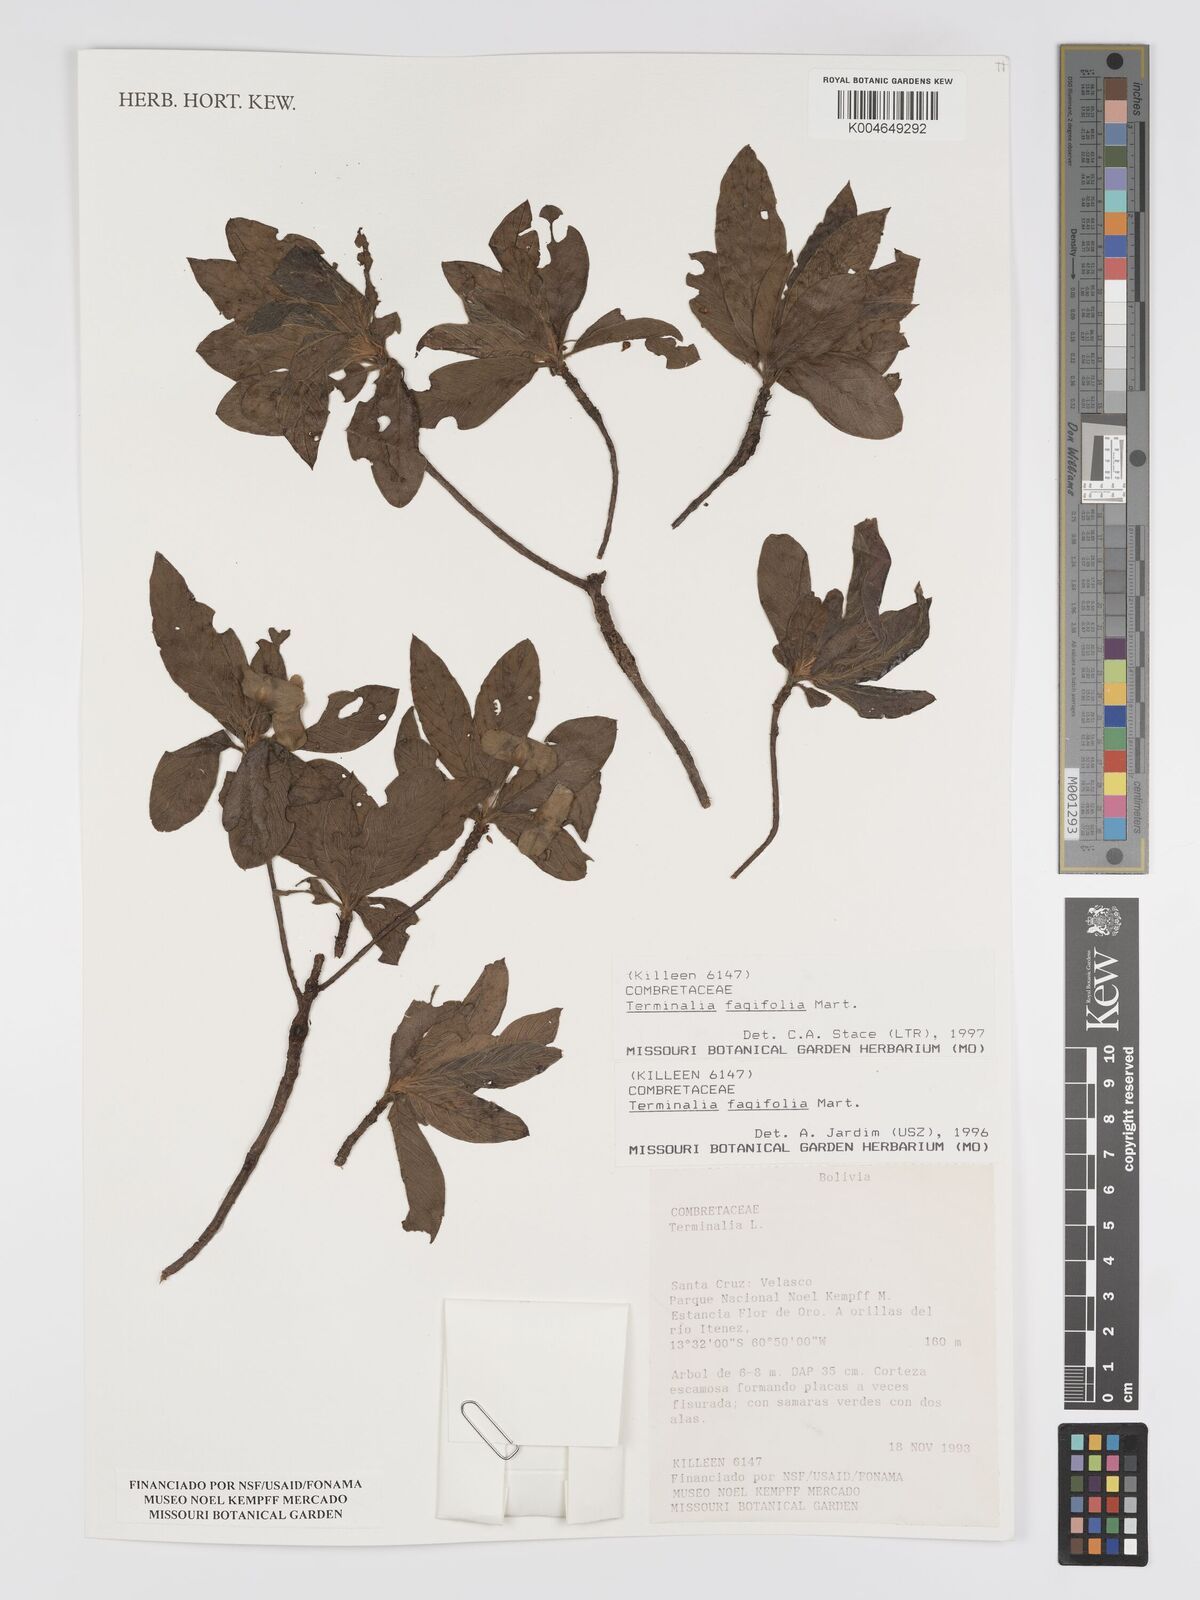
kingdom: Plantae
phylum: Tracheophyta
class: Magnoliopsida
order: Myrtales
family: Combretaceae
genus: Terminalia
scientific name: Terminalia fagifolia
